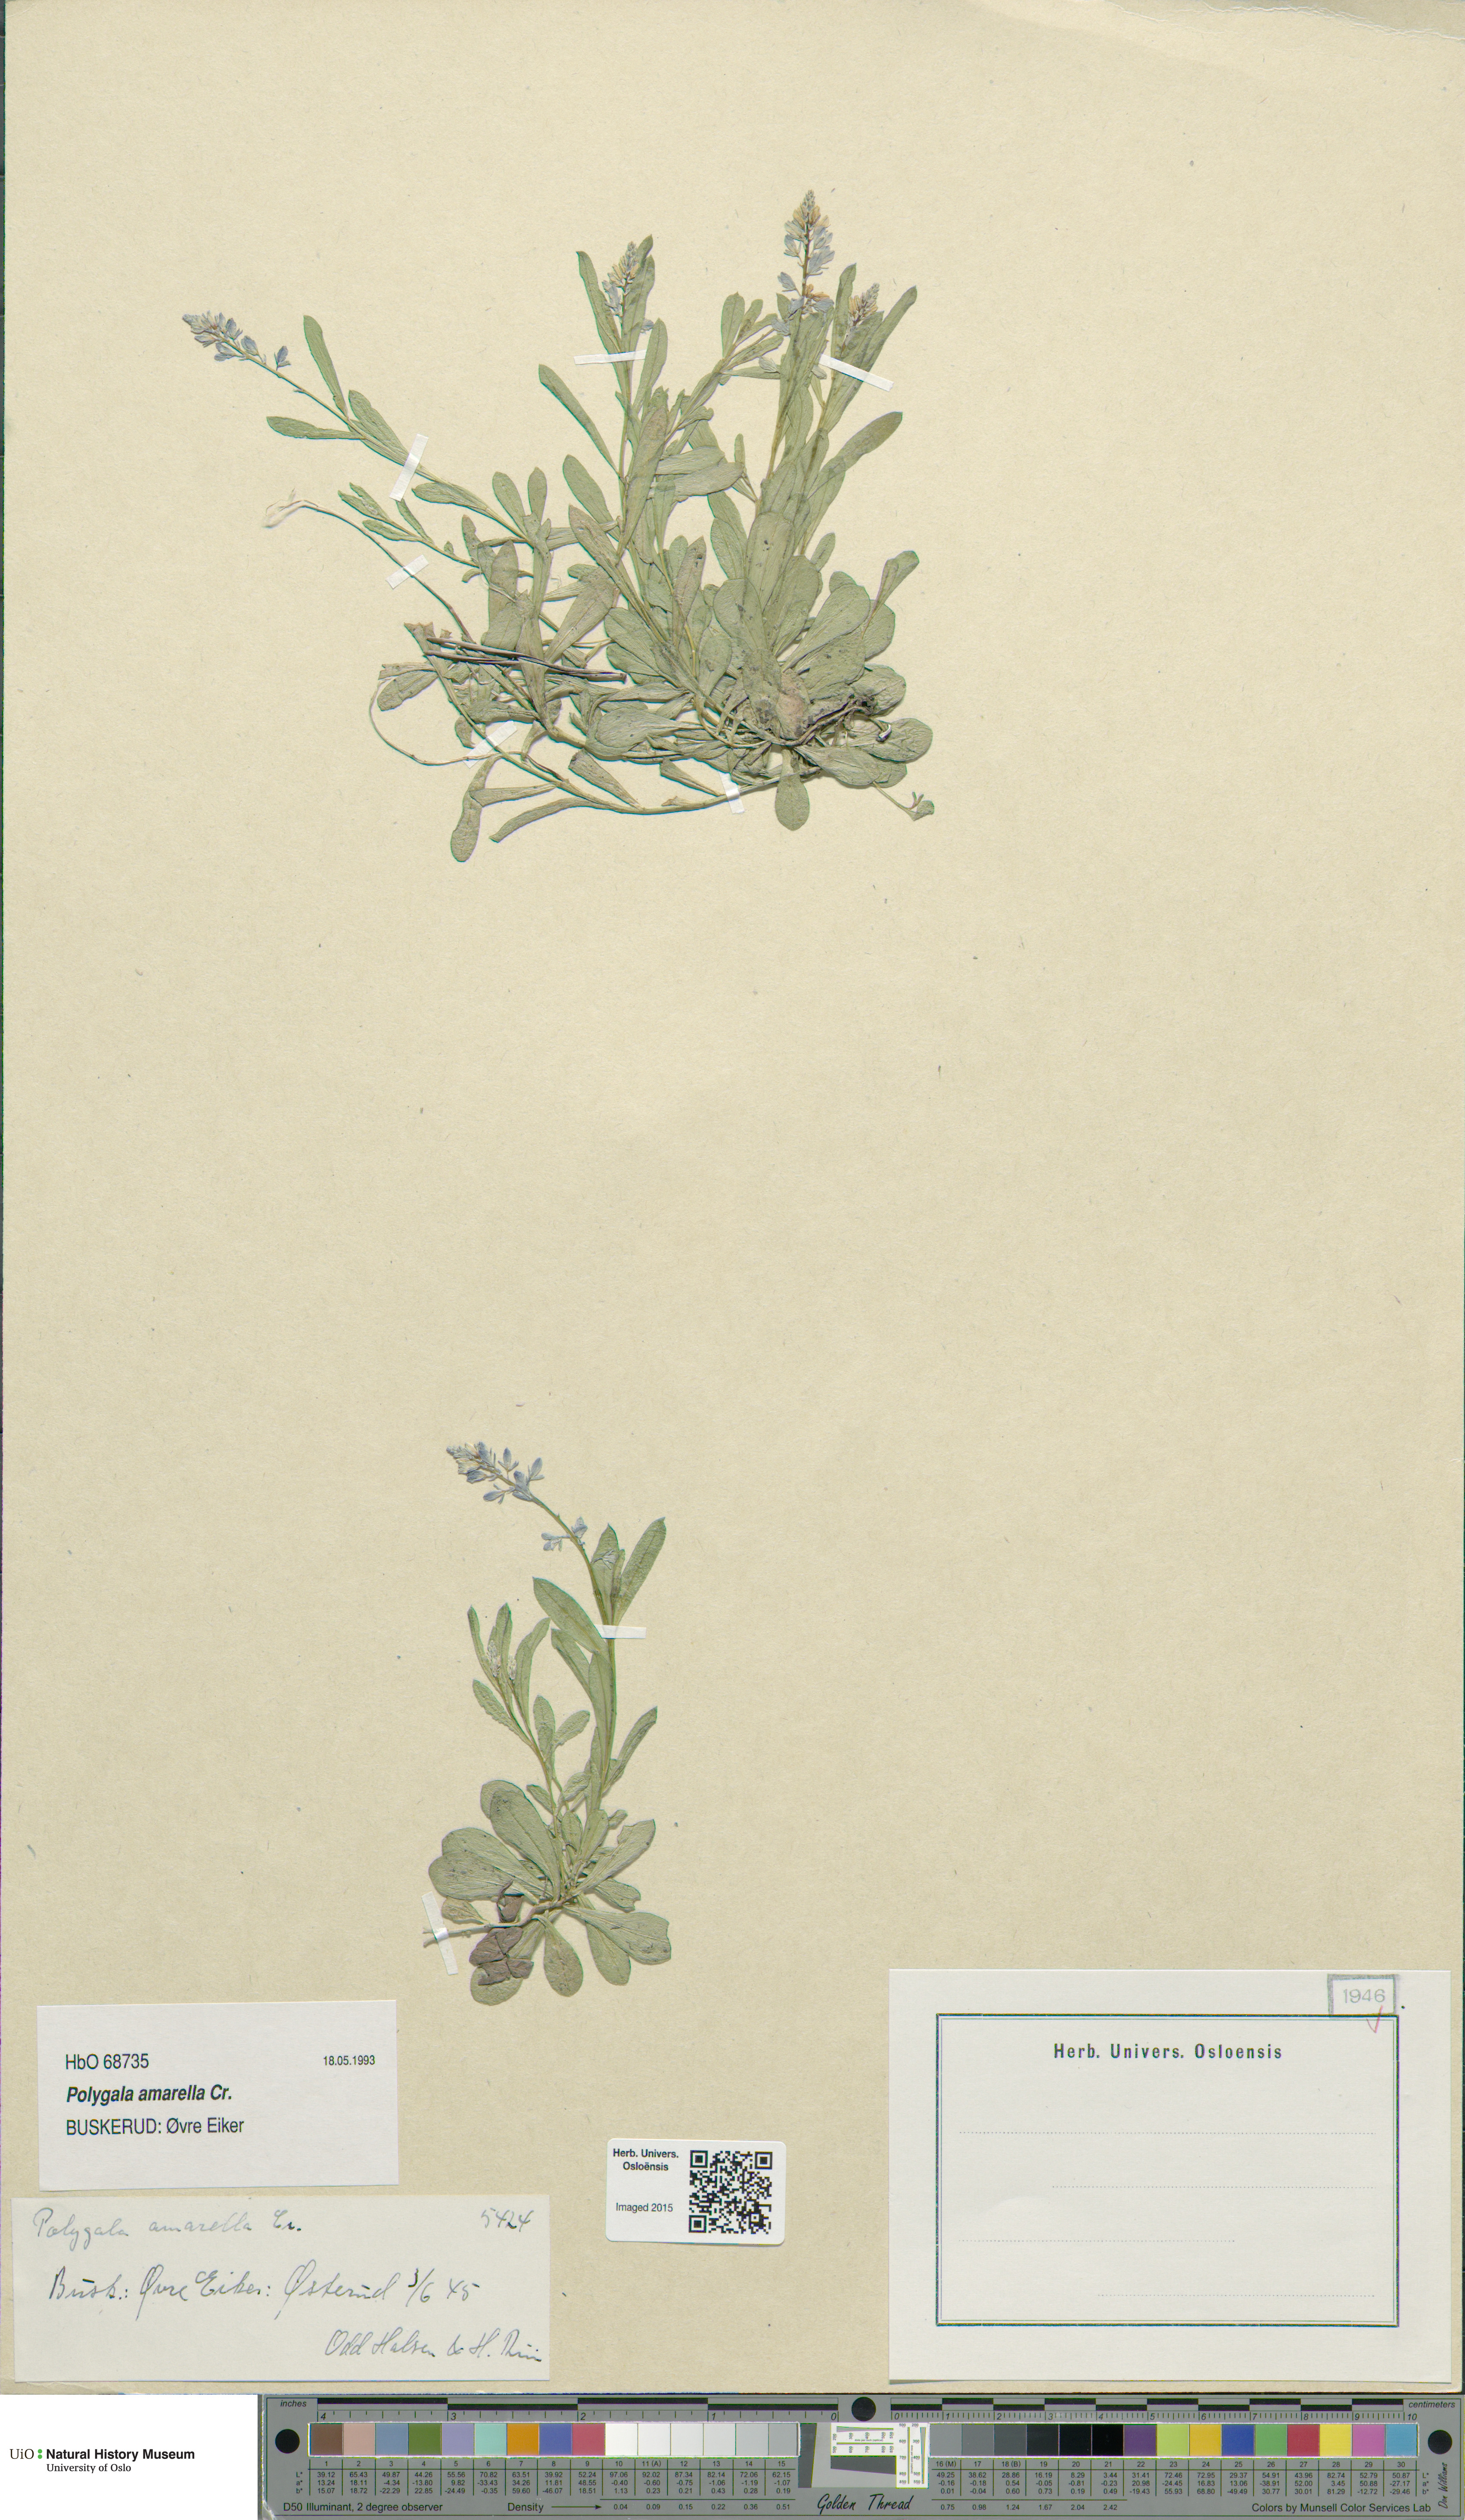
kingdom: Plantae
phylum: Tracheophyta
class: Magnoliopsida
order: Fabales
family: Polygalaceae
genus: Polygala
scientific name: Polygala amarella
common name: Dwarf milkwort
